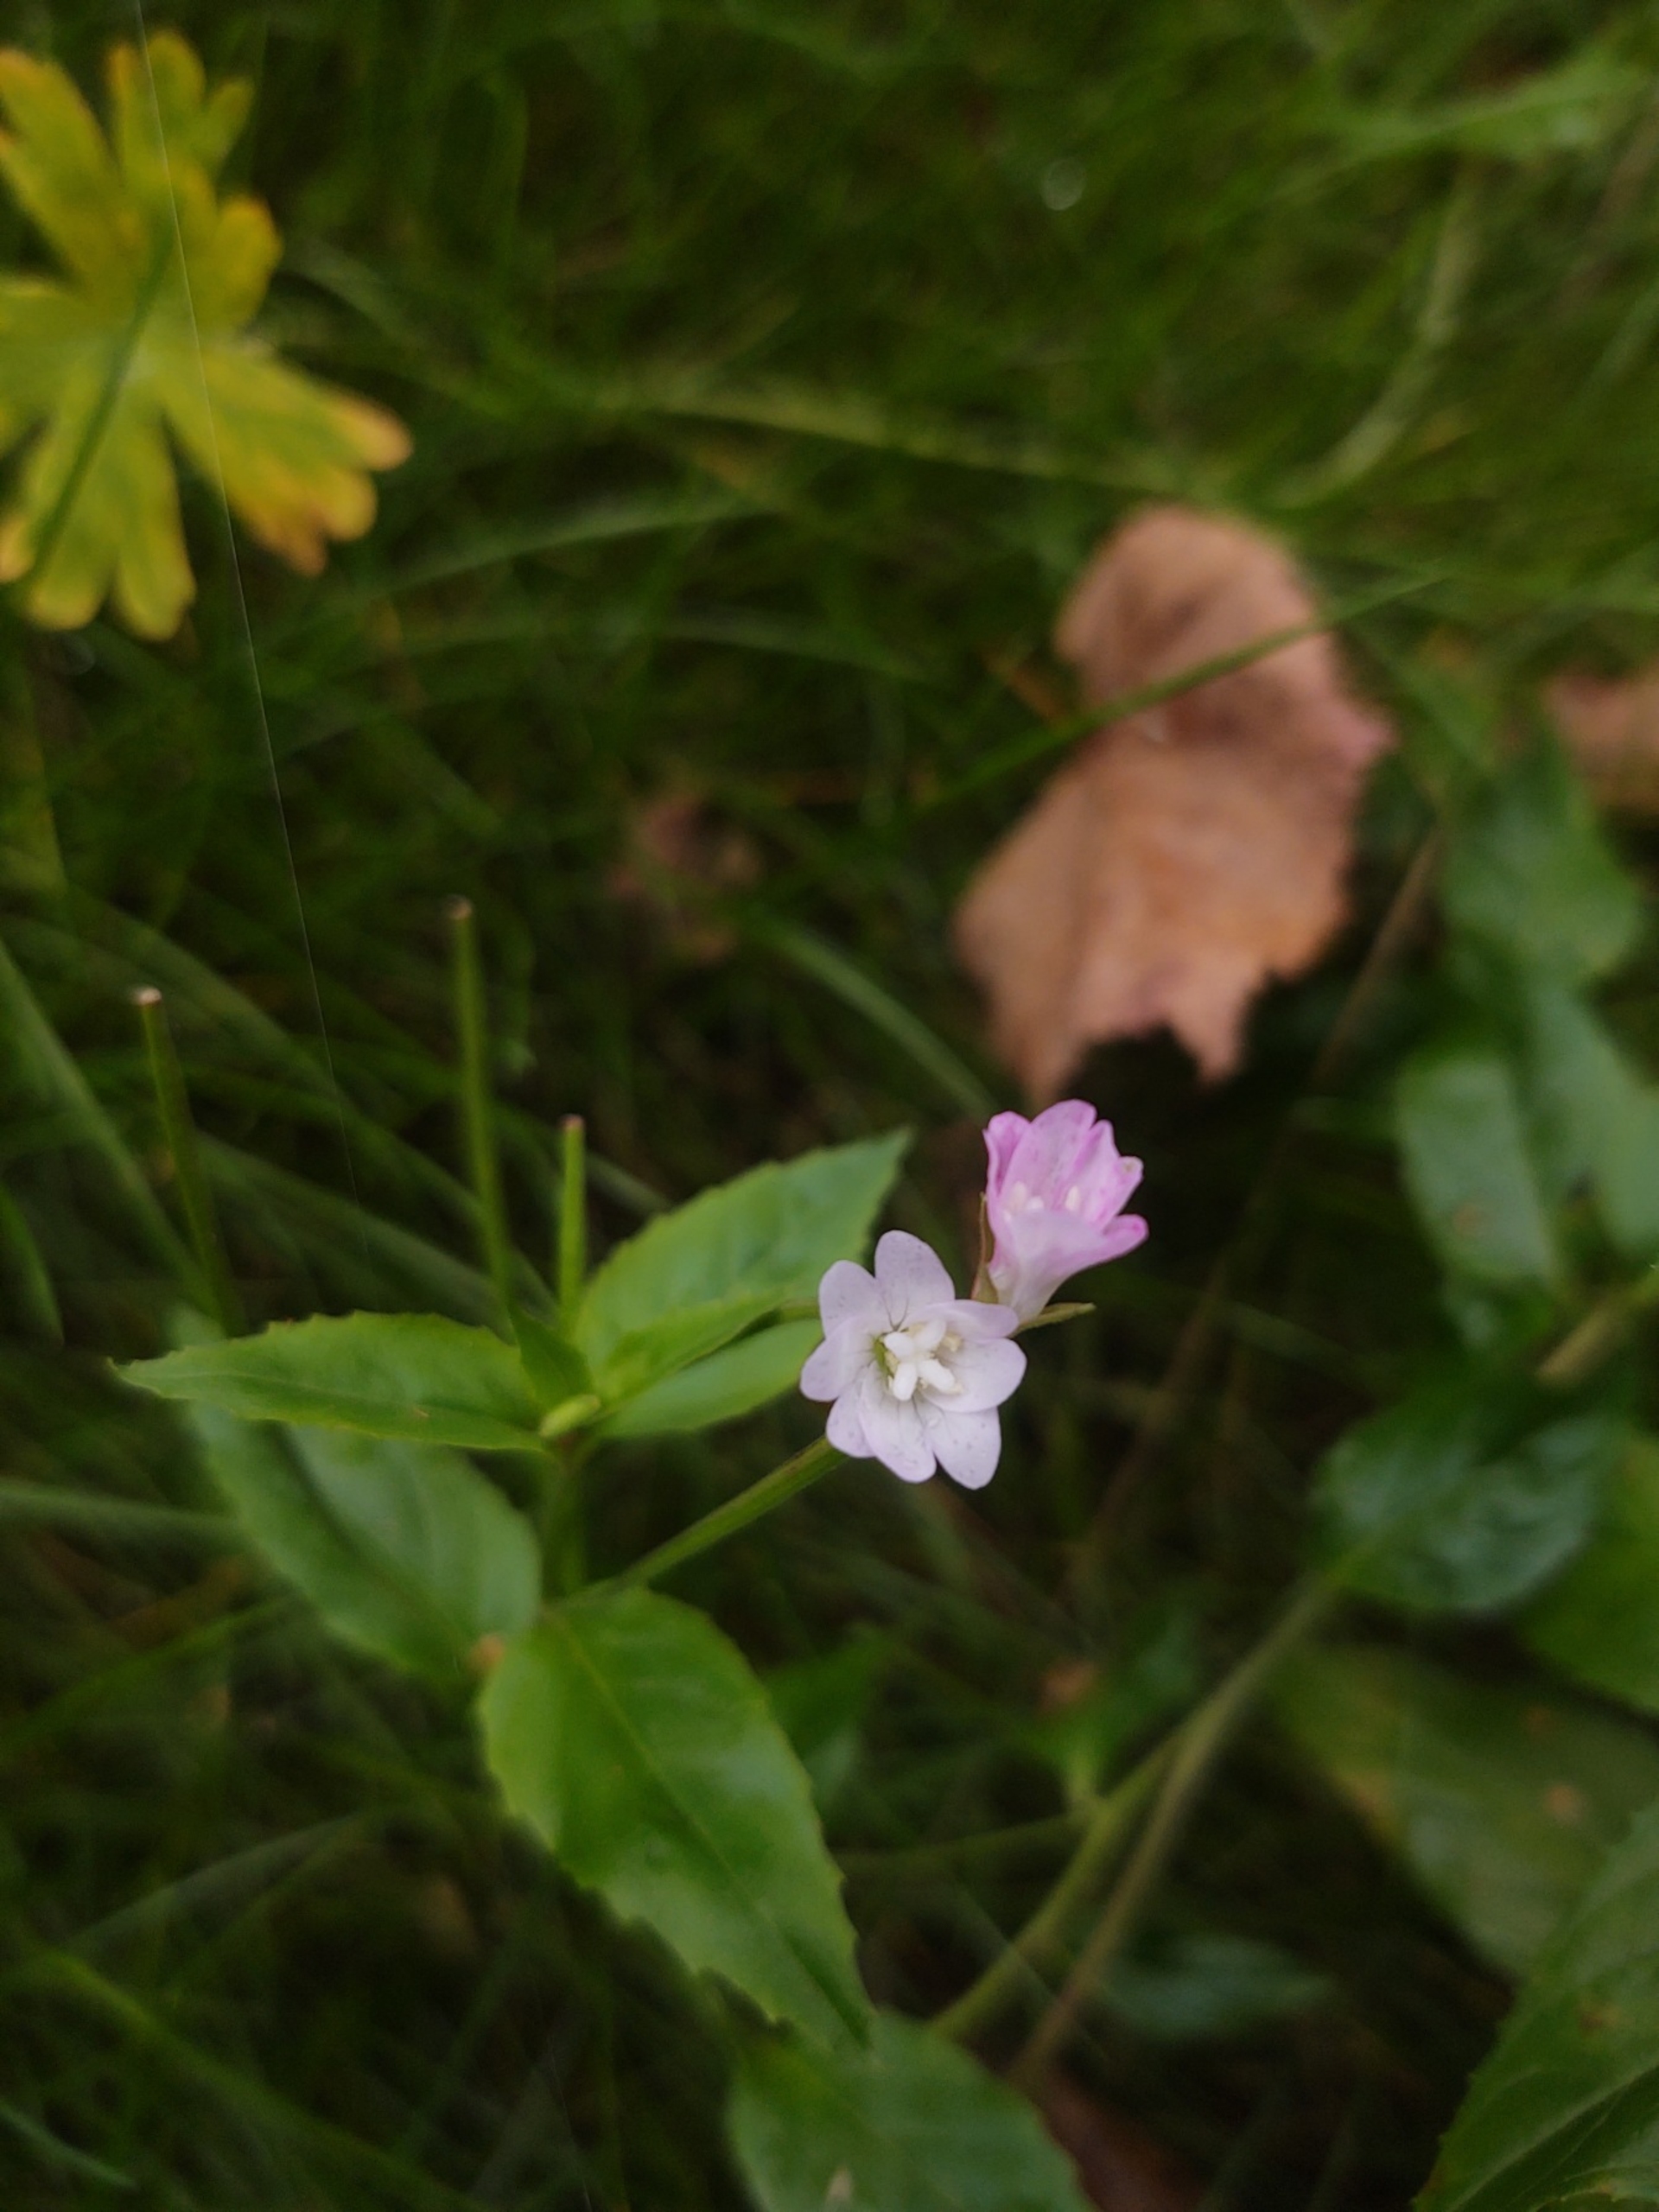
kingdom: Plantae
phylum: Tracheophyta
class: Magnoliopsida
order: Myrtales
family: Onagraceae
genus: Epilobium
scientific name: Epilobium montanum
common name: Glat dueurt
